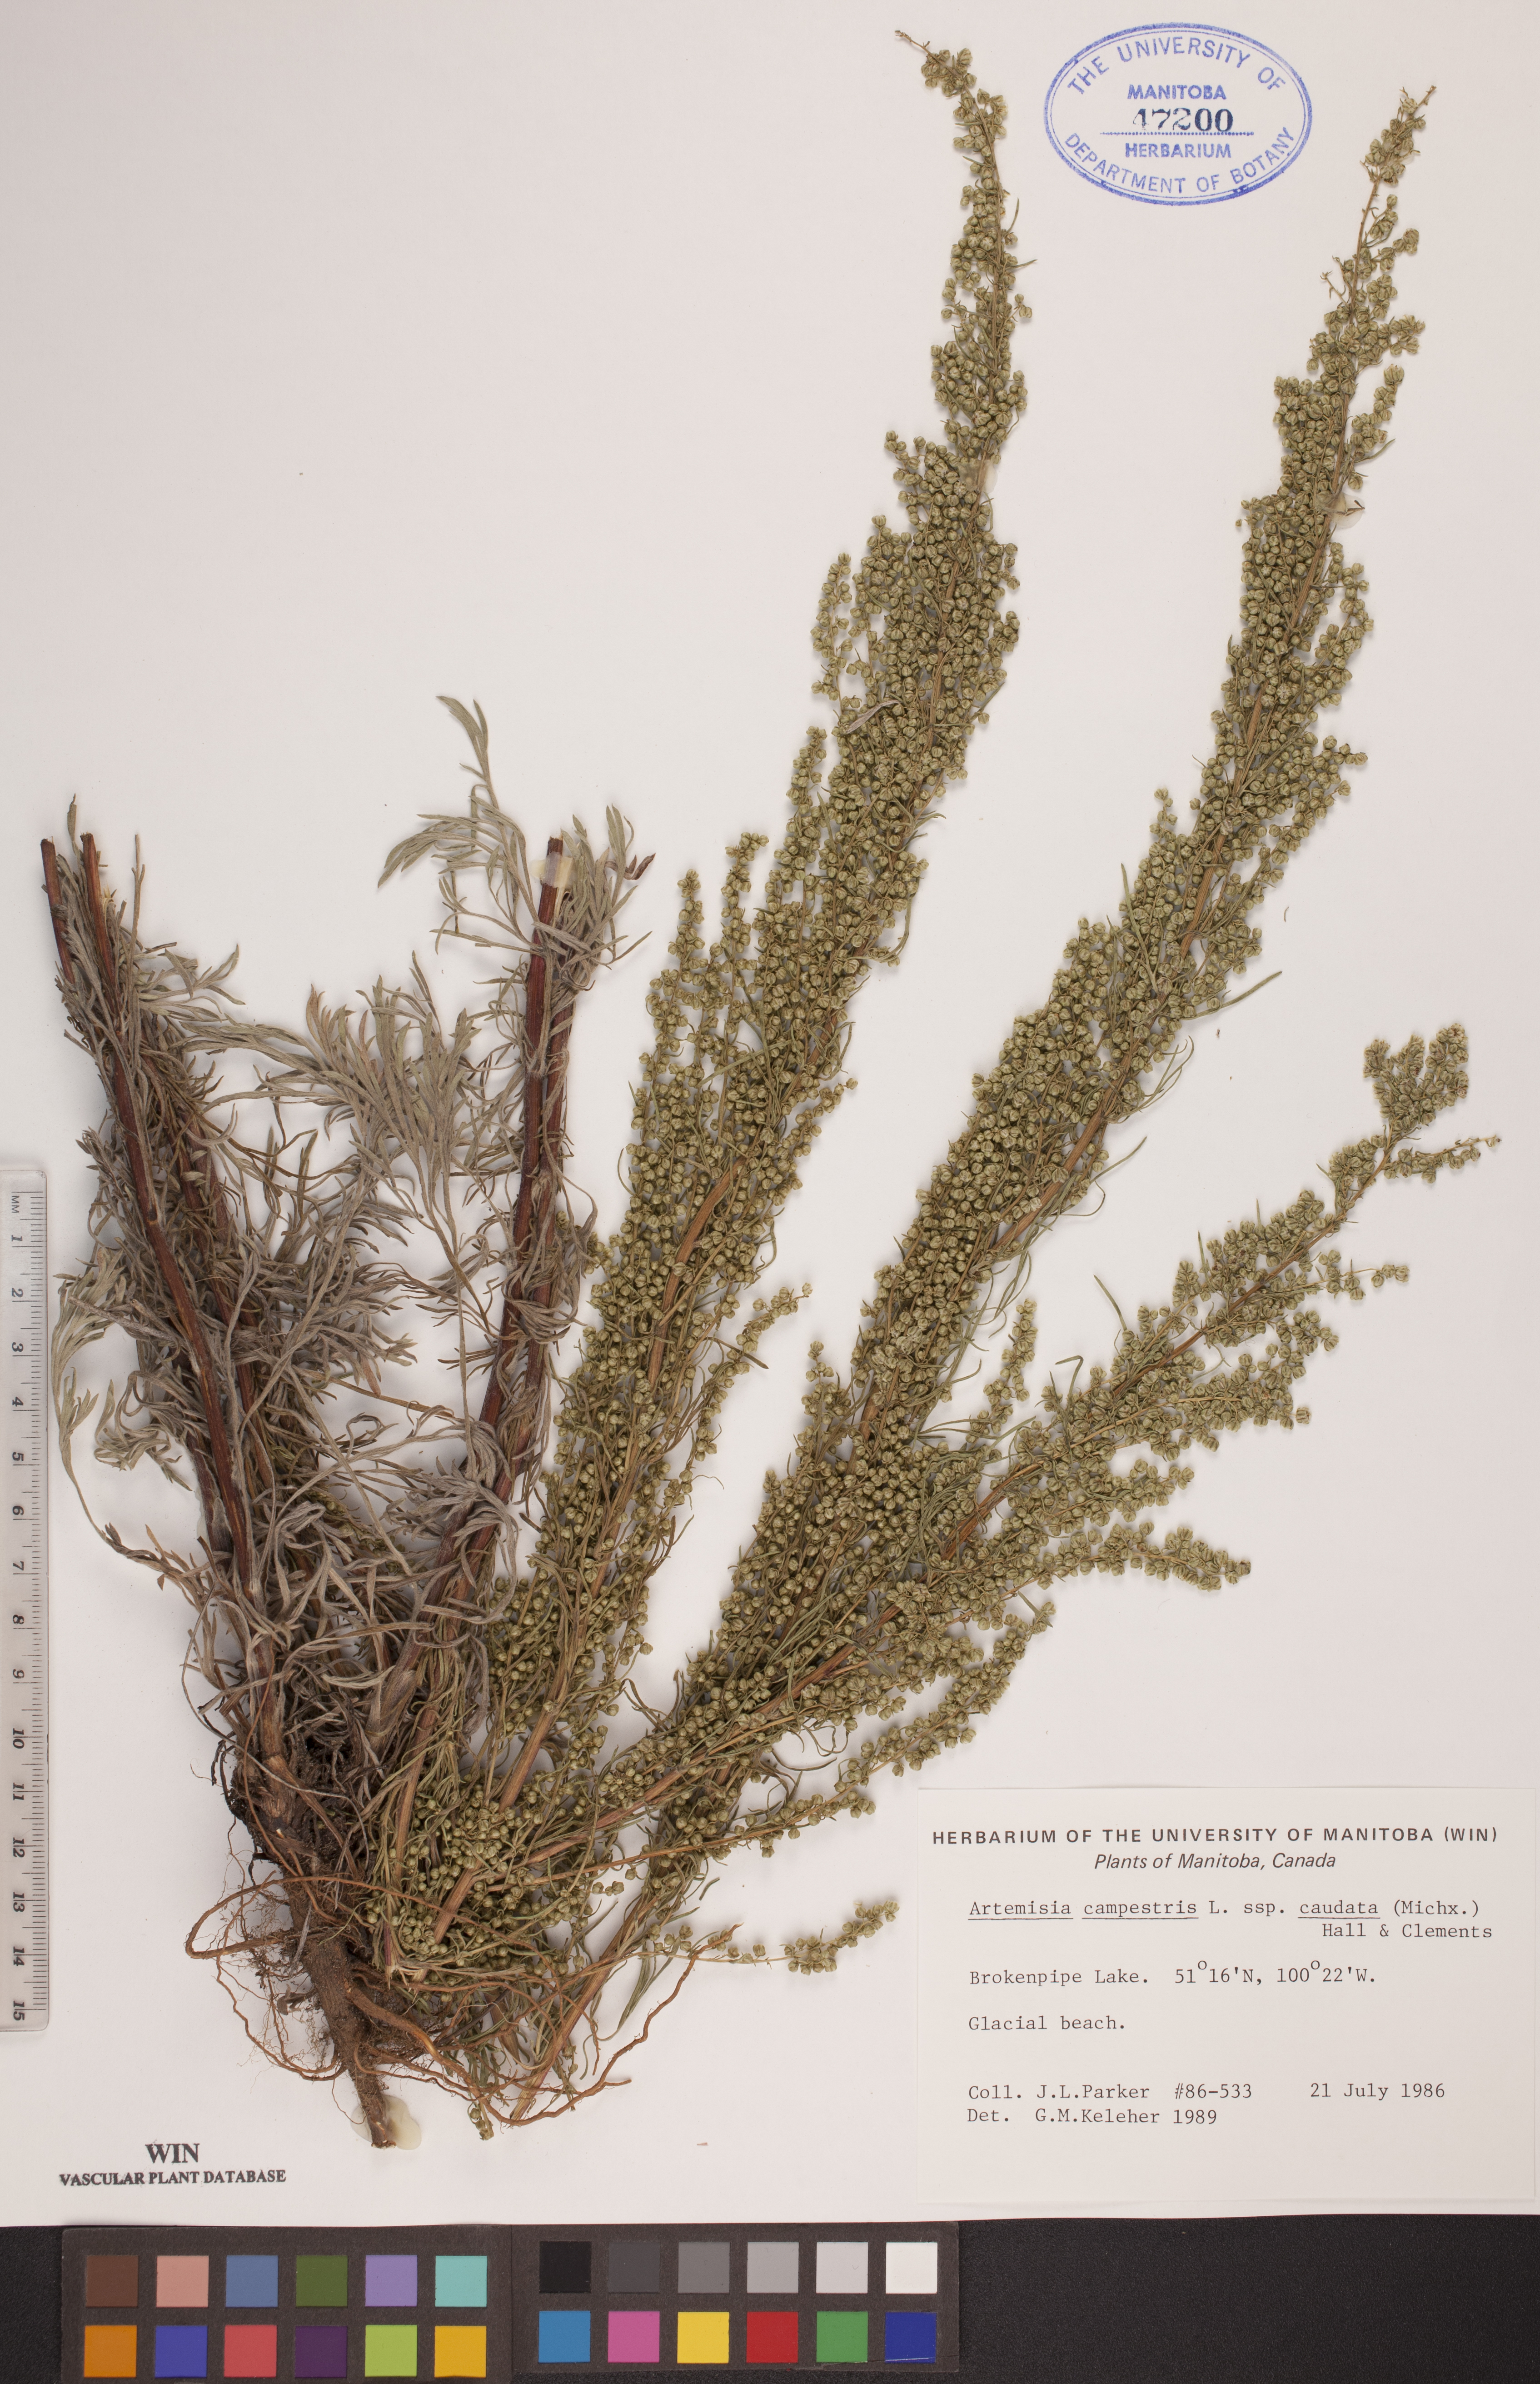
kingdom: Plantae
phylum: Tracheophyta
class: Magnoliopsida
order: Asterales
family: Asteraceae
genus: Artemisia
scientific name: Artemisia campestris
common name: Field wormwood
